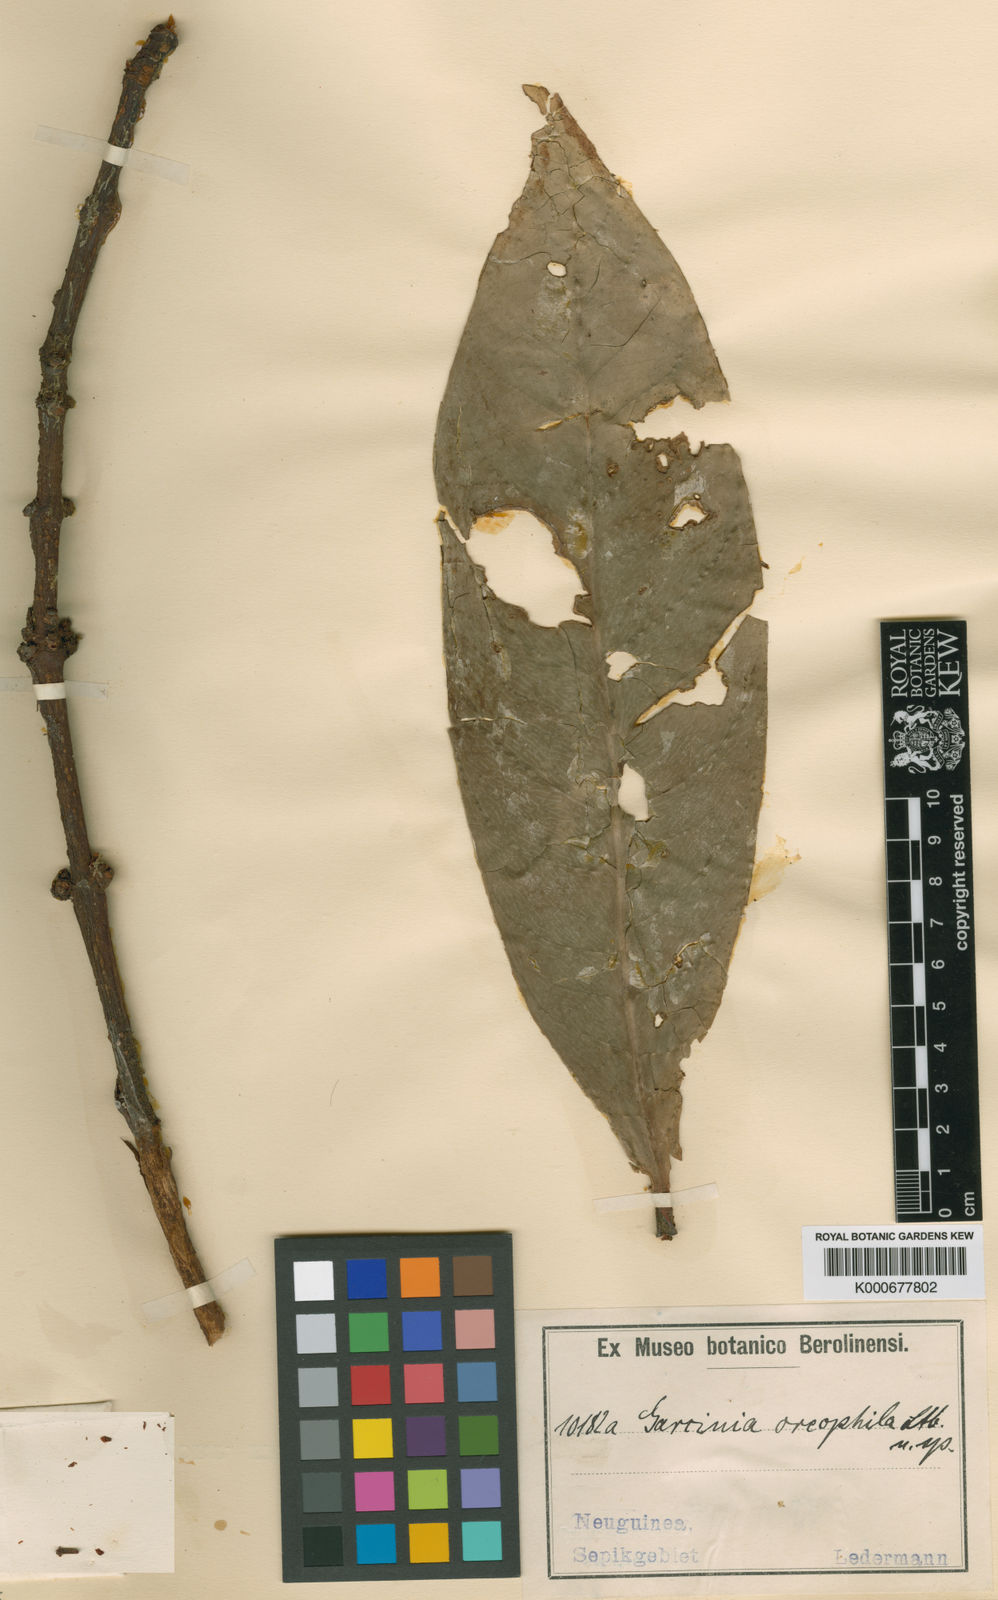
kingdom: Plantae
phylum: Tracheophyta
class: Magnoliopsida
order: Malpighiales
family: Clusiaceae
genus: Garcinia
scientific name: Garcinia oreophila
